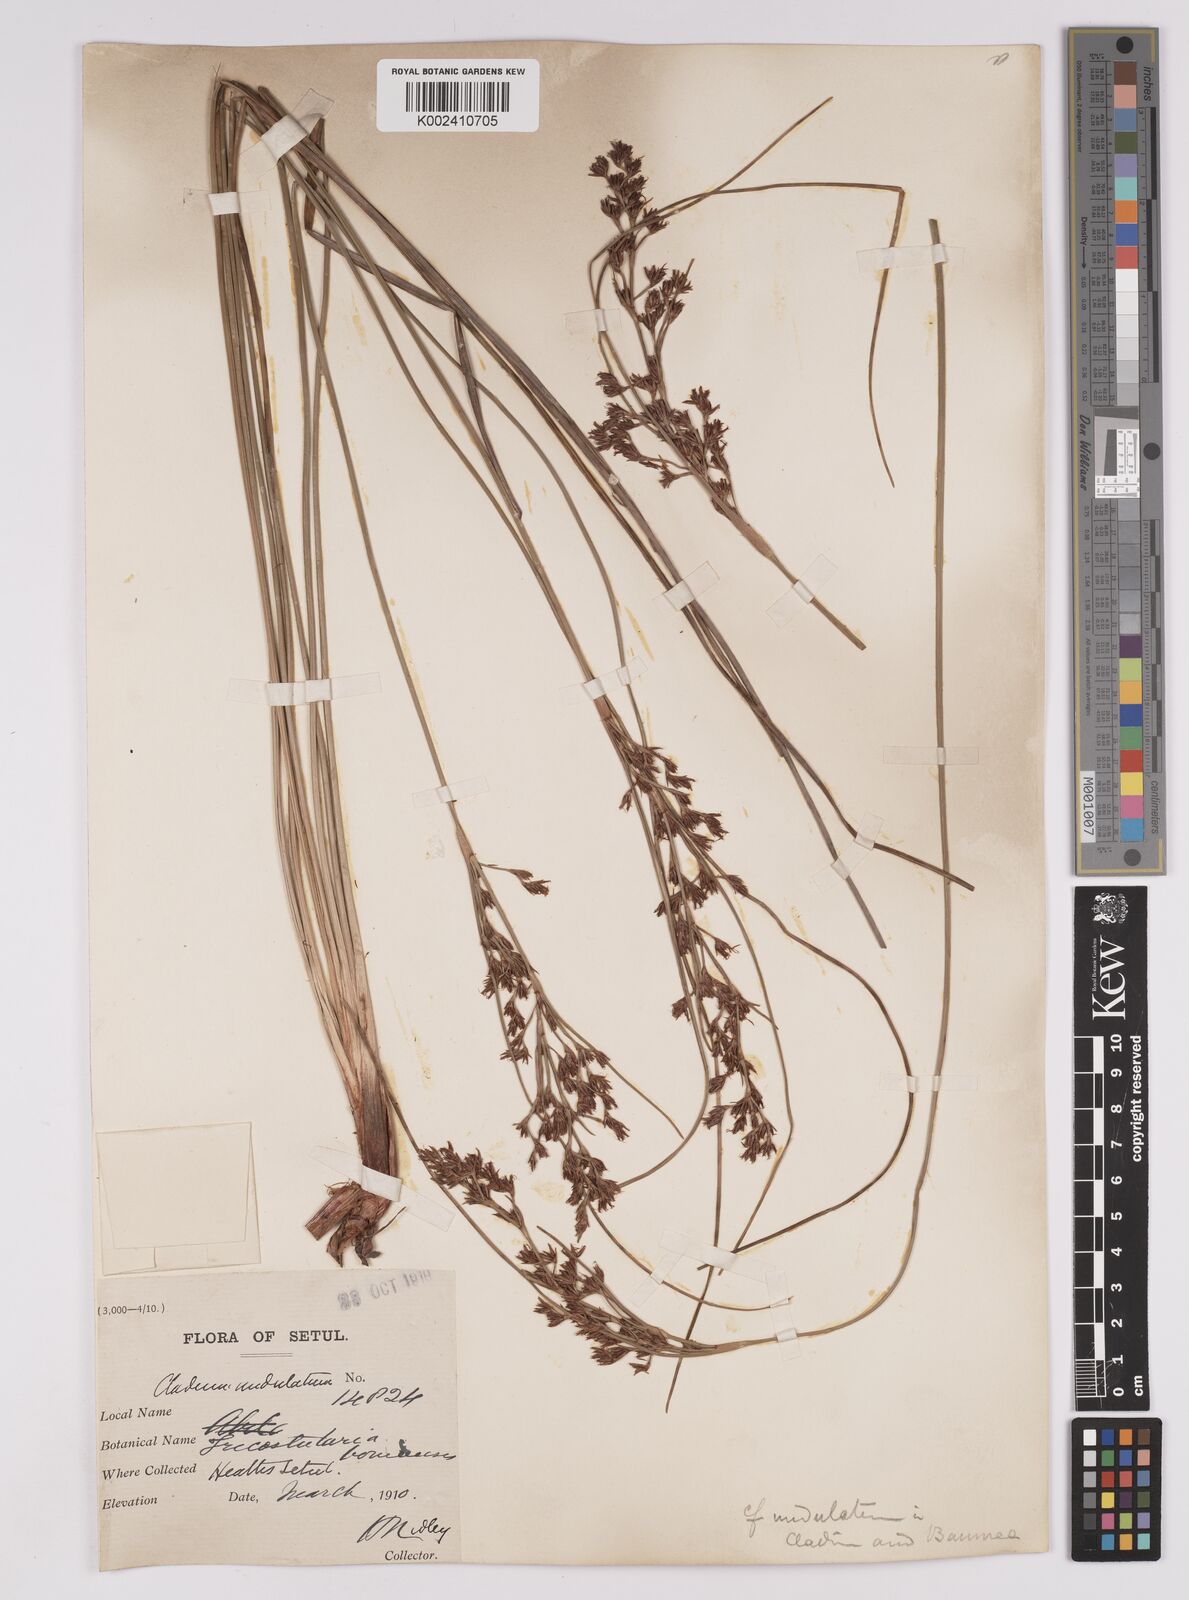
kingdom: Plantae
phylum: Tracheophyta
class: Liliopsida
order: Poales
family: Cyperaceae
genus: Anthelepis
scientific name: Anthelepis undulata
